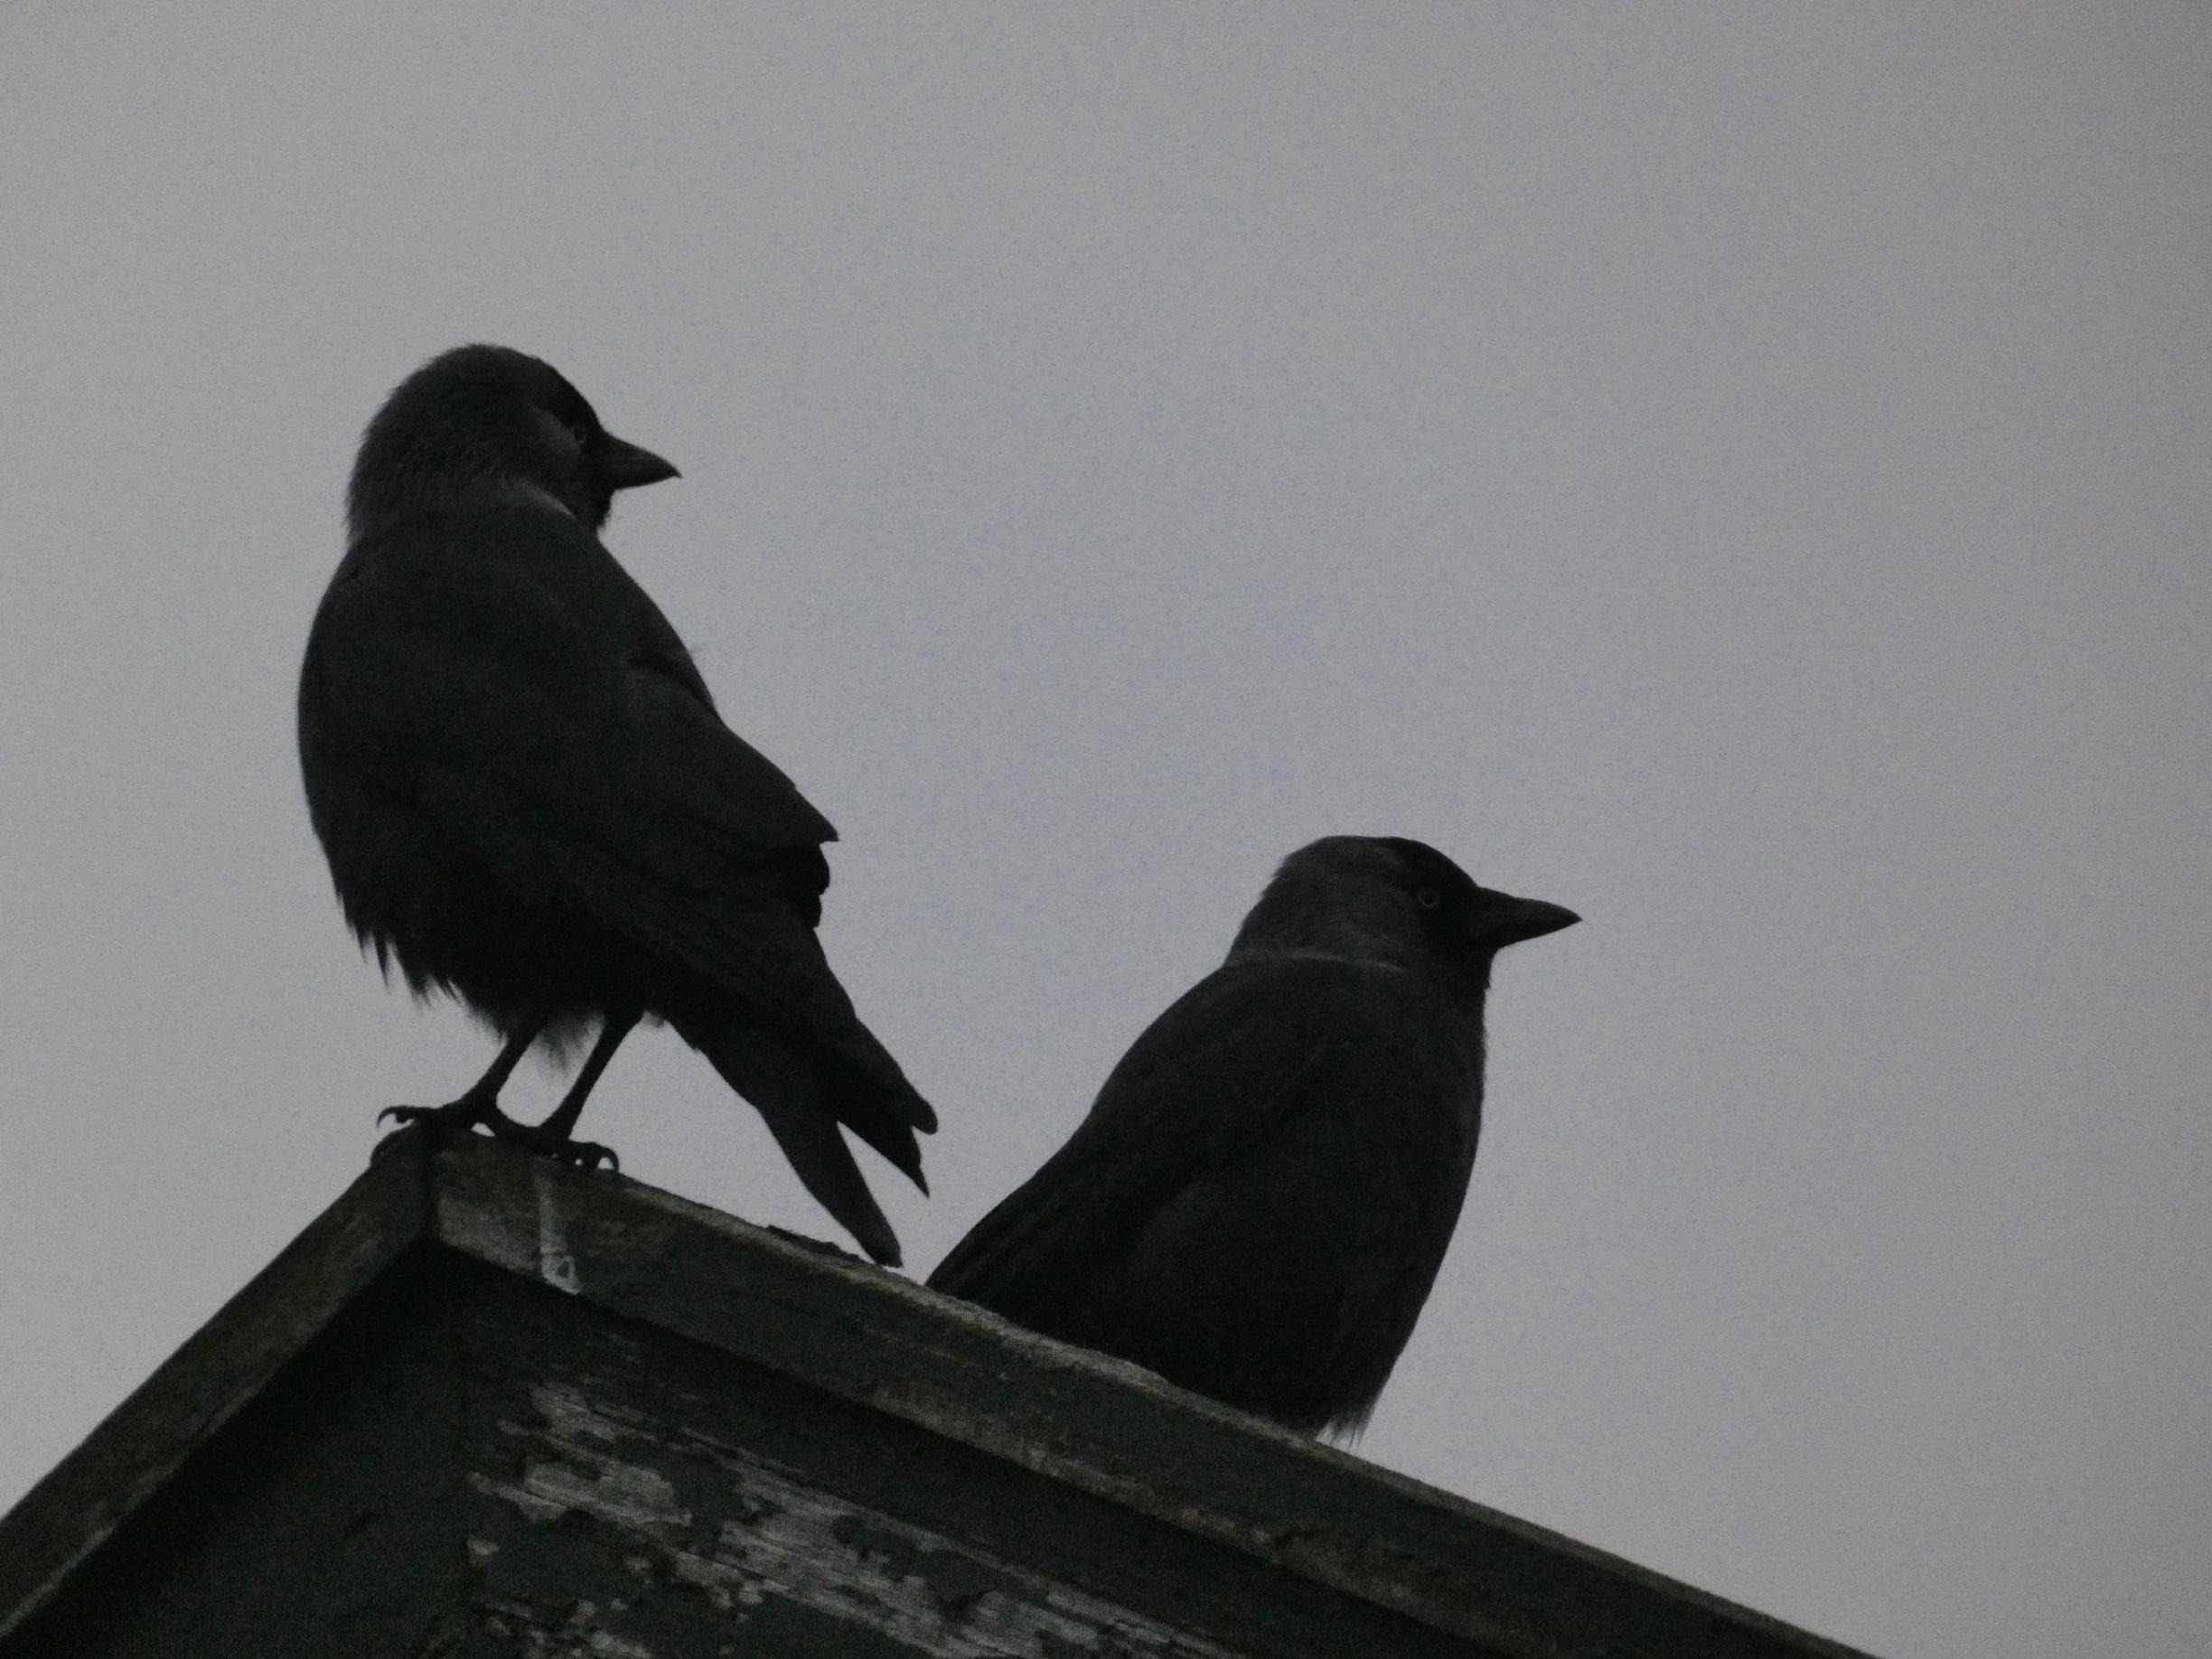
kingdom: Animalia
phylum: Chordata
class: Aves
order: Passeriformes
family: Corvidae
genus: Coloeus
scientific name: Coloeus monedula
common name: Allike
